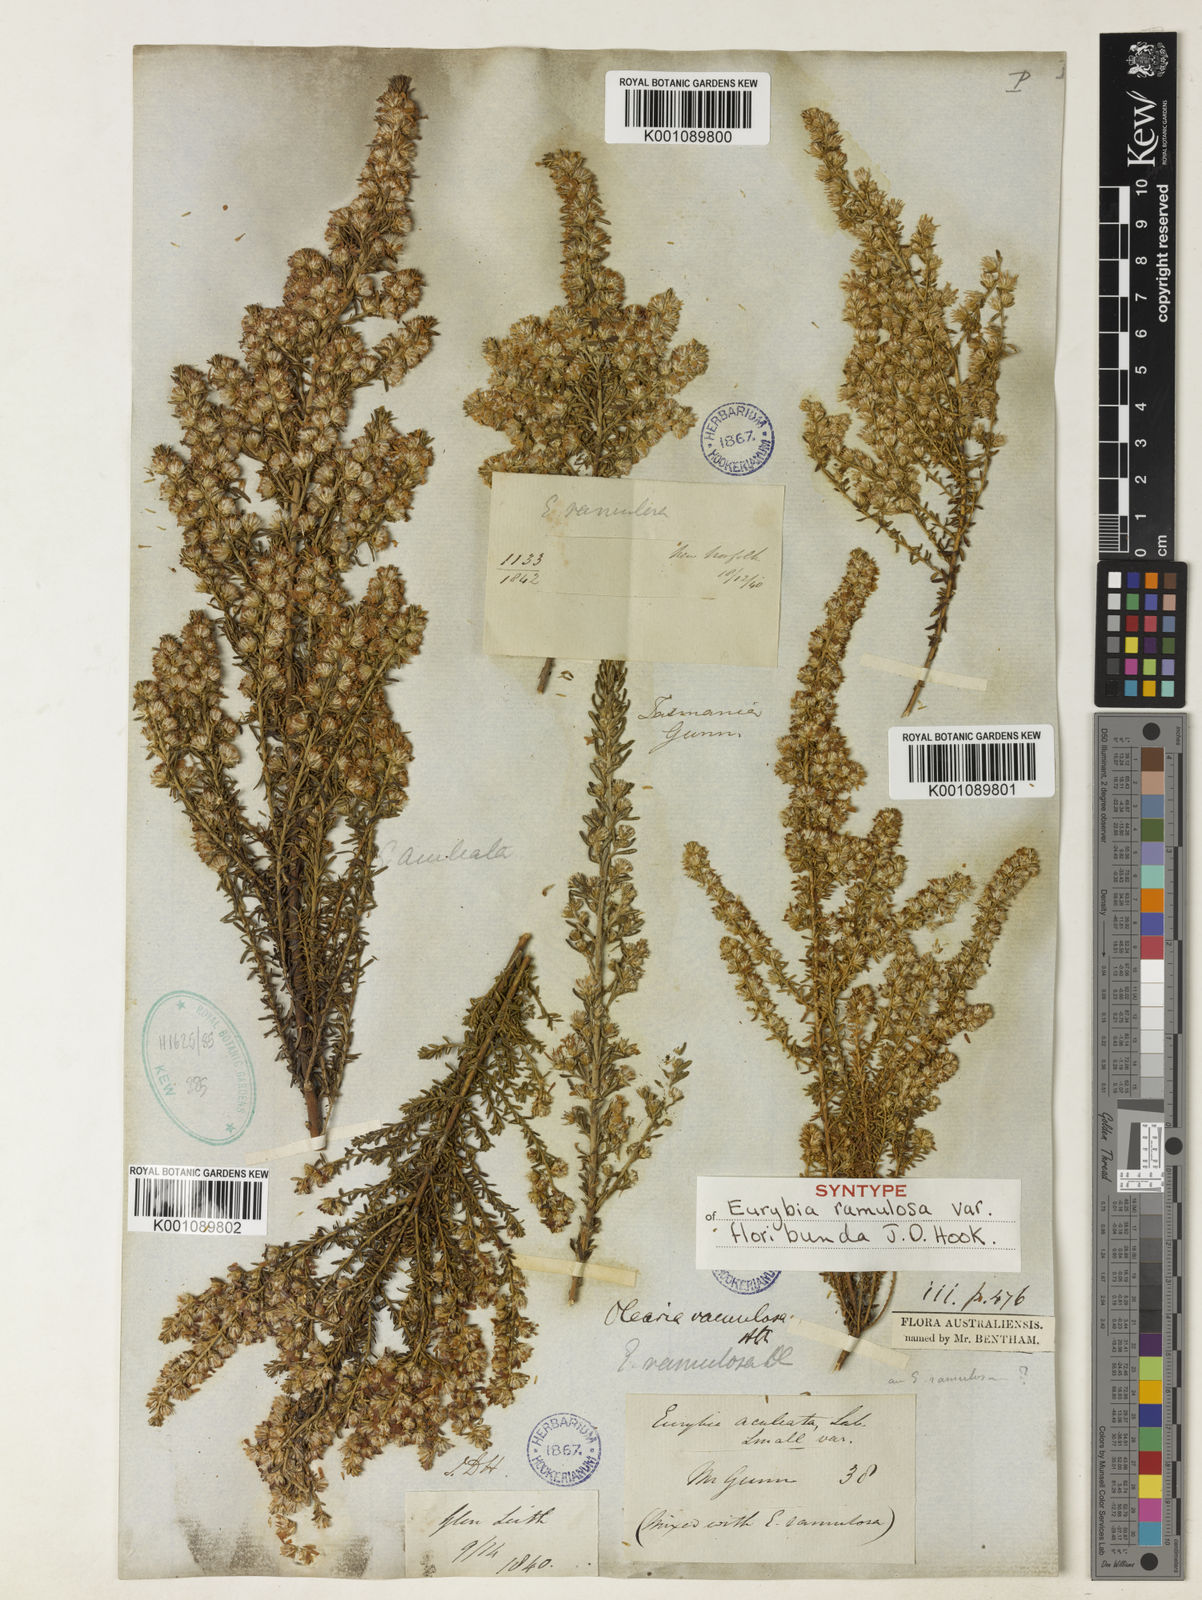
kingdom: Plantae
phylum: Tracheophyta
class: Magnoliopsida
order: Asterales
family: Asteraceae
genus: Olearia
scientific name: Olearia ramulosa
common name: Twiggy daisybush
